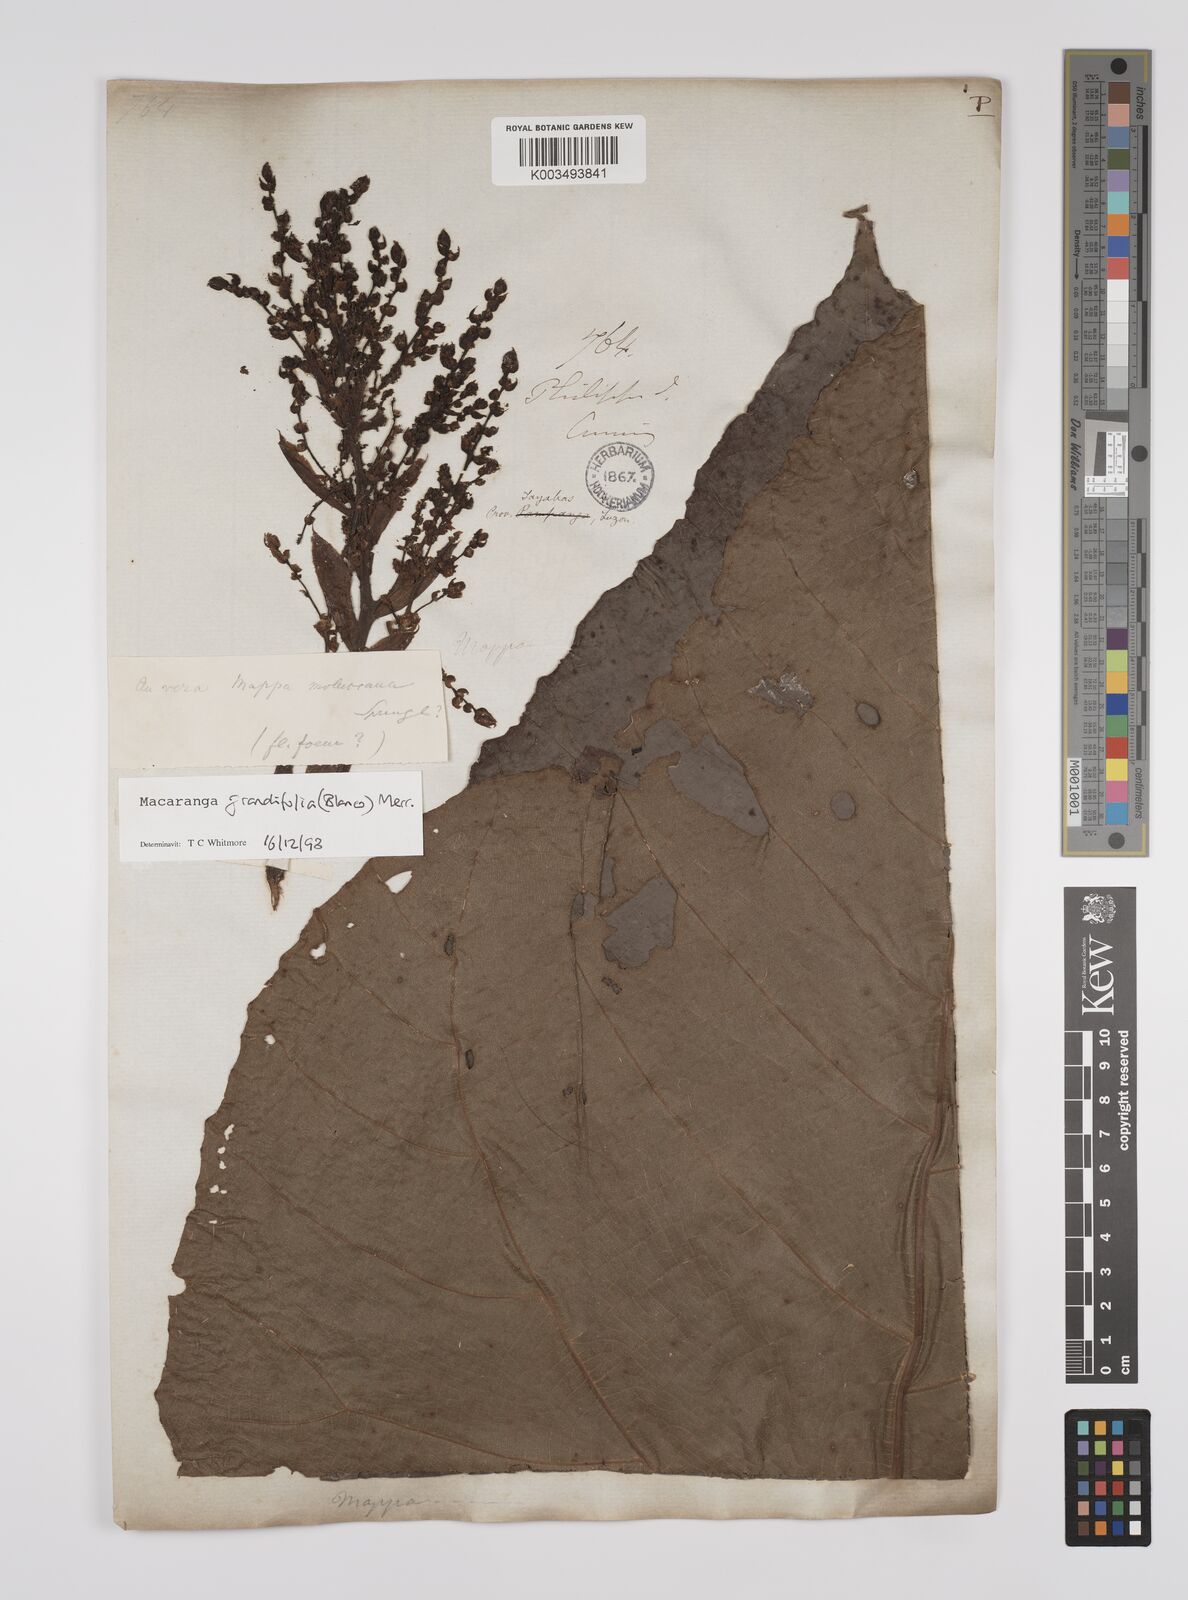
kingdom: Plantae
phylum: Tracheophyta
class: Magnoliopsida
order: Malpighiales
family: Euphorbiaceae
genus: Macaranga
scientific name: Macaranga grandifolia
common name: Coraltree
